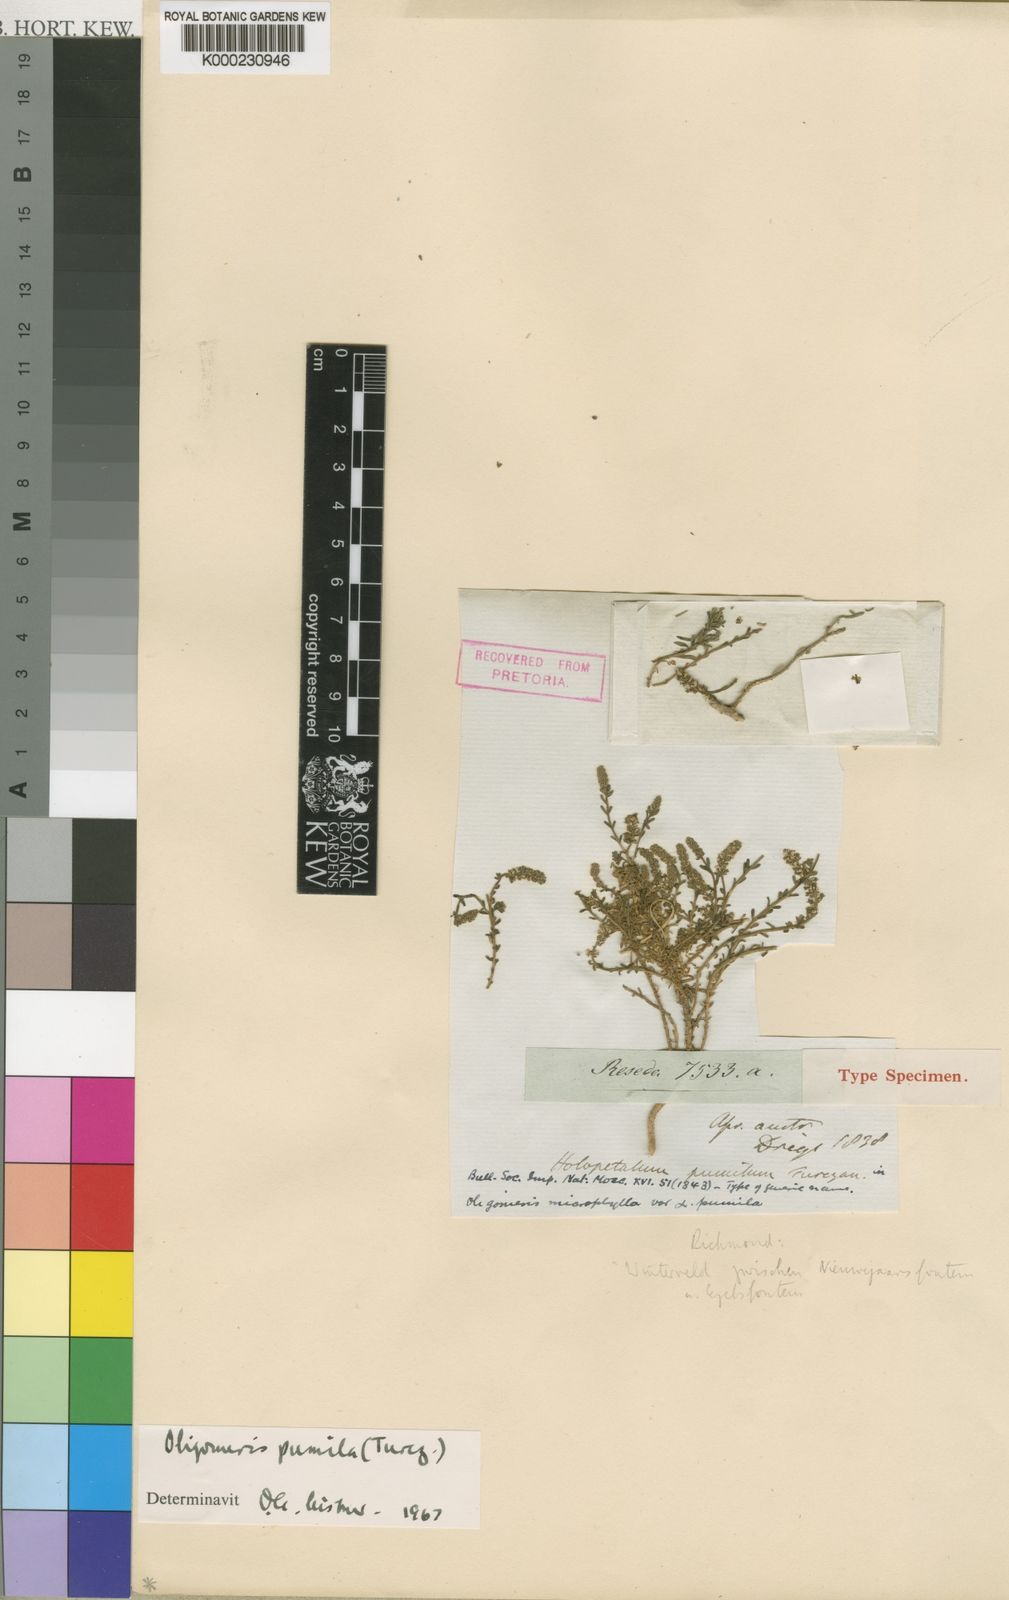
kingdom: Plantae
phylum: Tracheophyta
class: Magnoliopsida
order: Brassicales
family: Resedaceae
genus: Oligomeris
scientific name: Oligomeris dipetala
